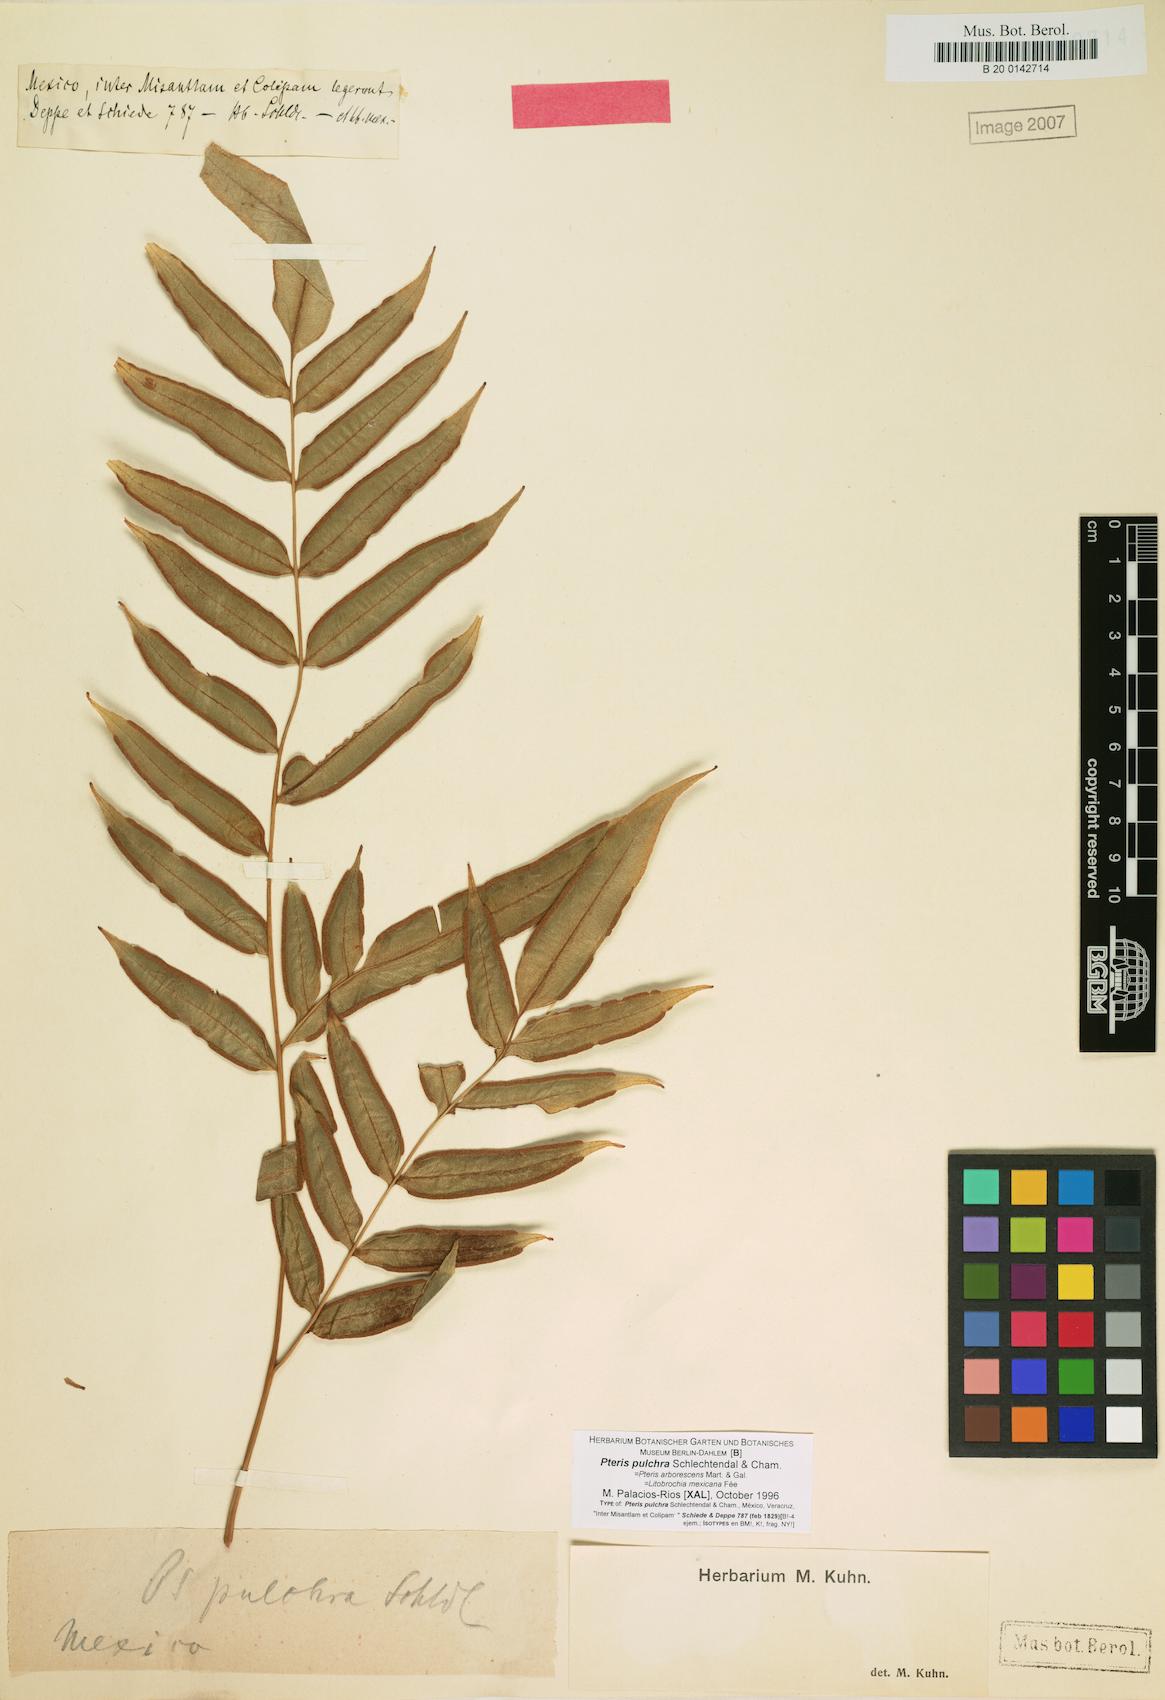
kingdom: Plantae
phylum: Tracheophyta
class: Polypodiopsida
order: Polypodiales
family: Pteridaceae
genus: Pteris
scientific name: Pteris pulchra
